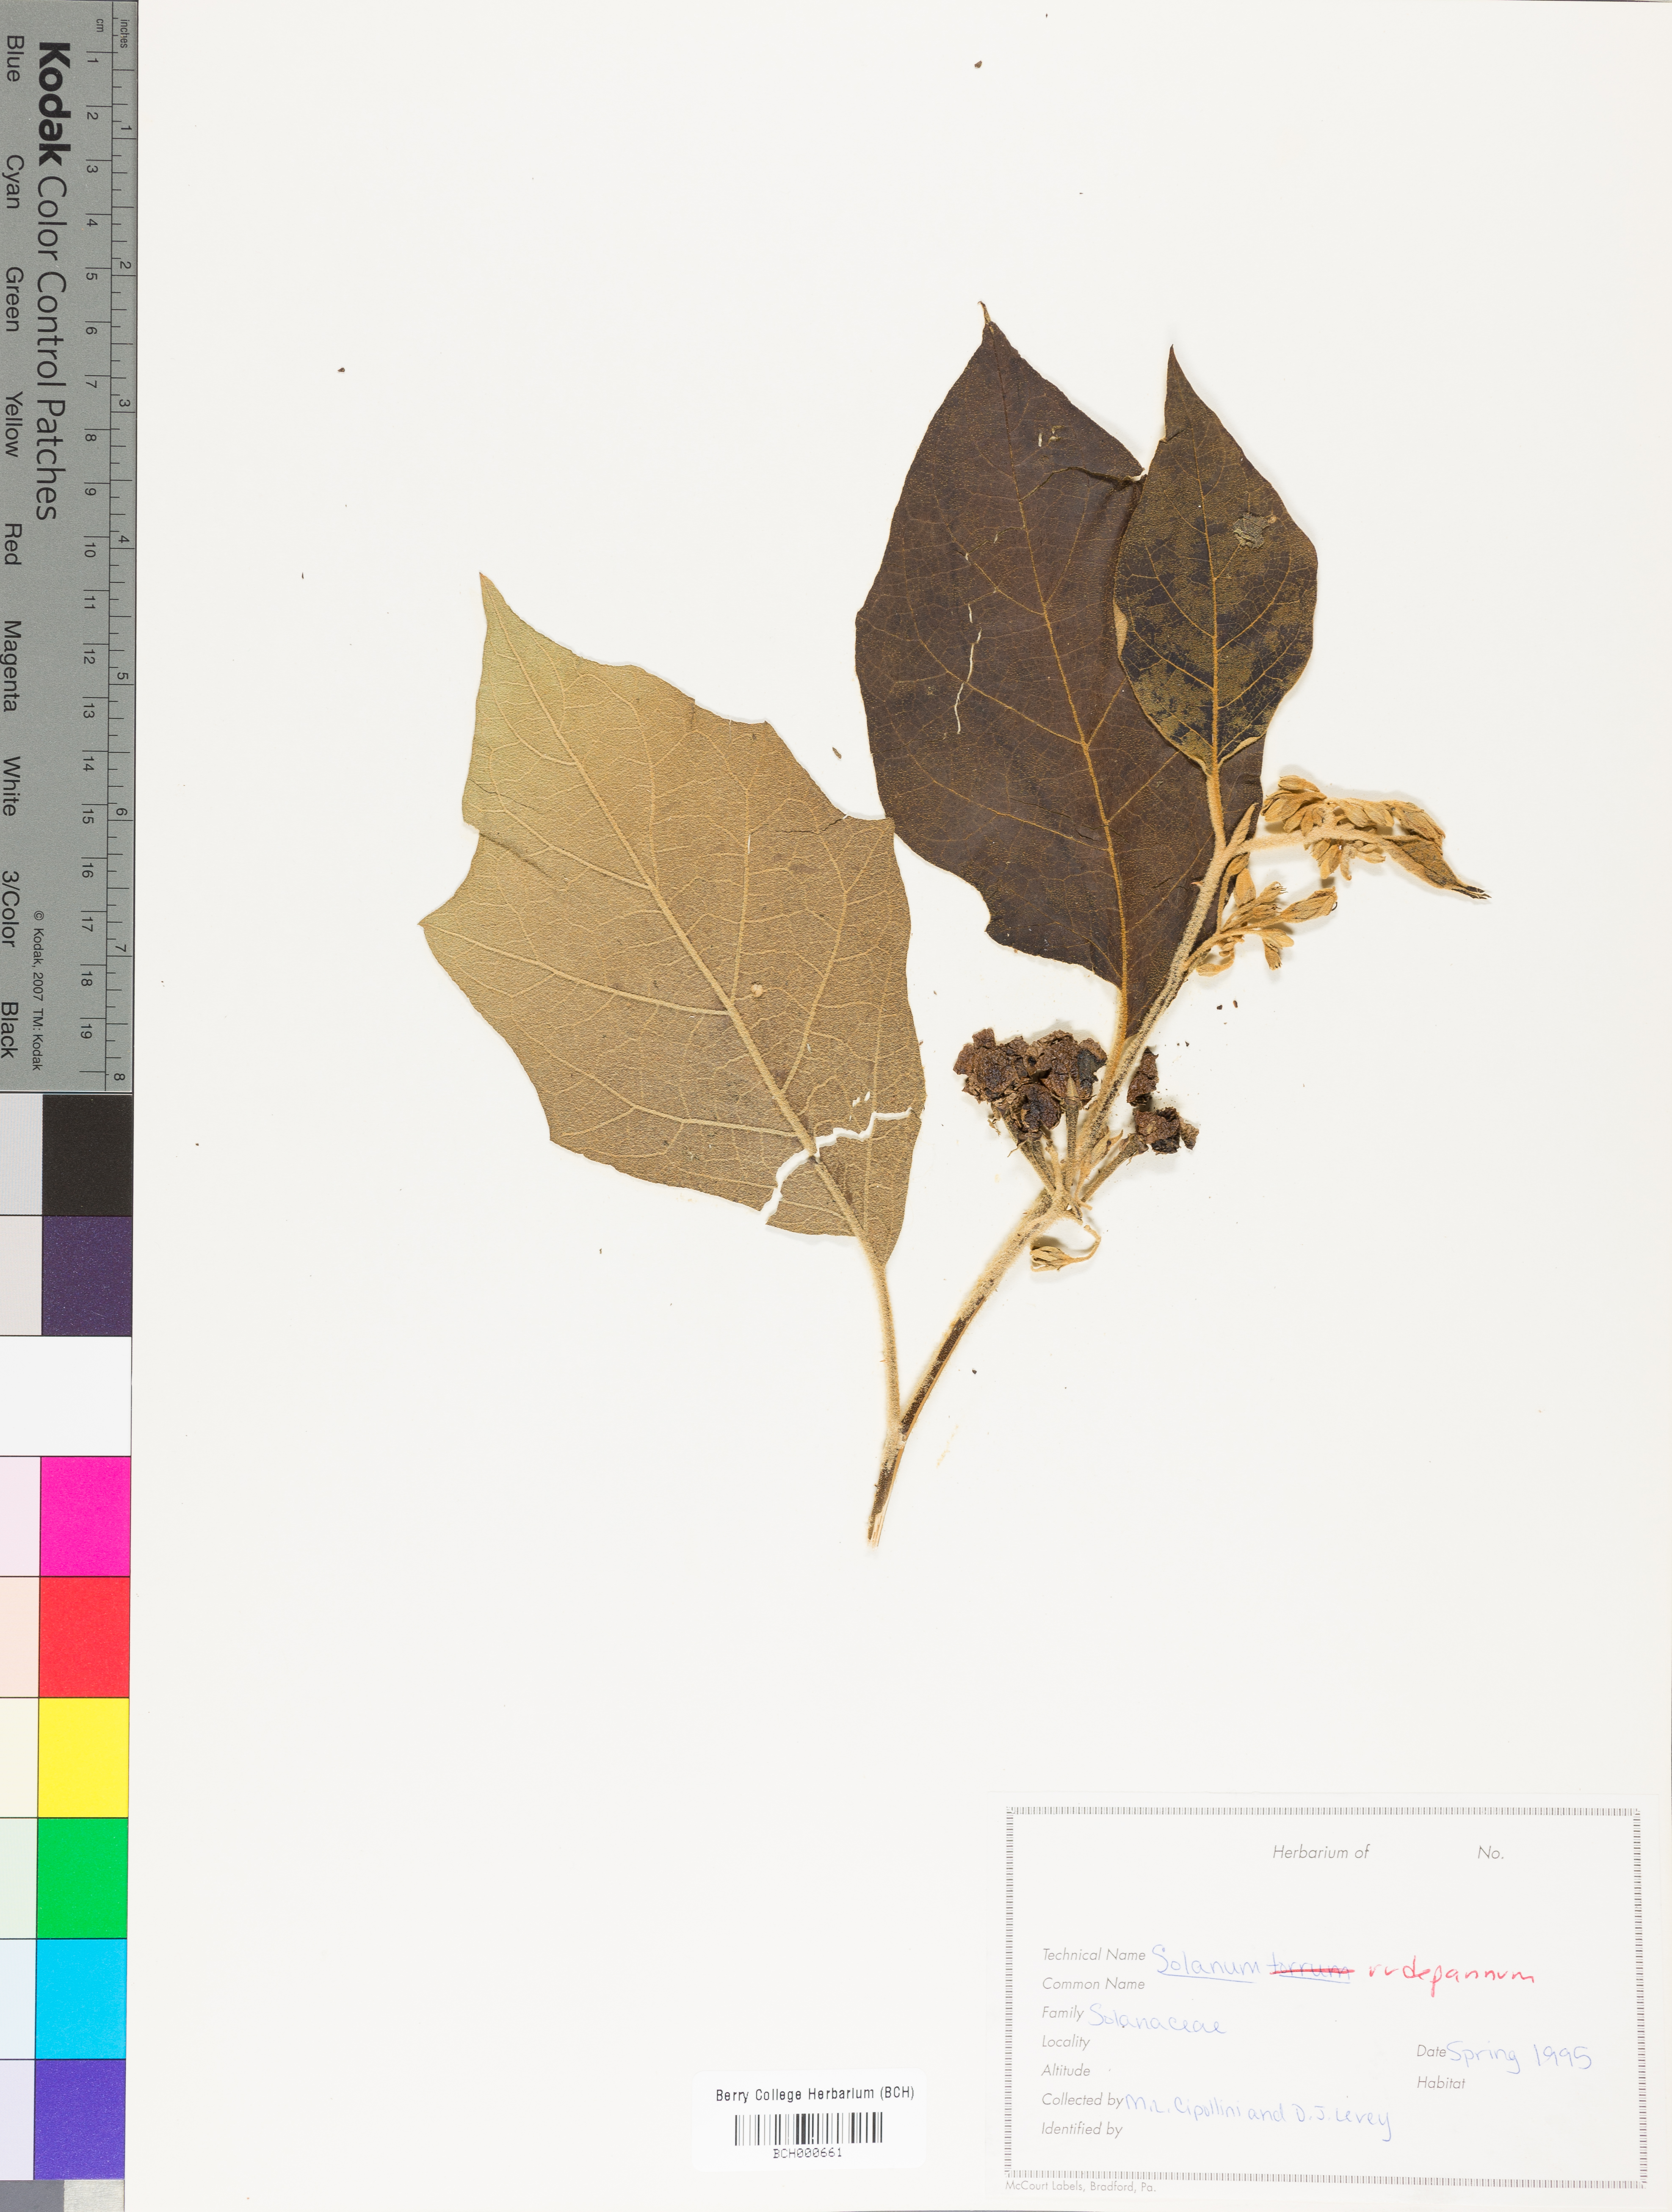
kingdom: Plantae
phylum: Tracheophyta
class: Magnoliopsida
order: Solanales
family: Solanaceae
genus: Solanum
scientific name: Solanum rude-pannum
